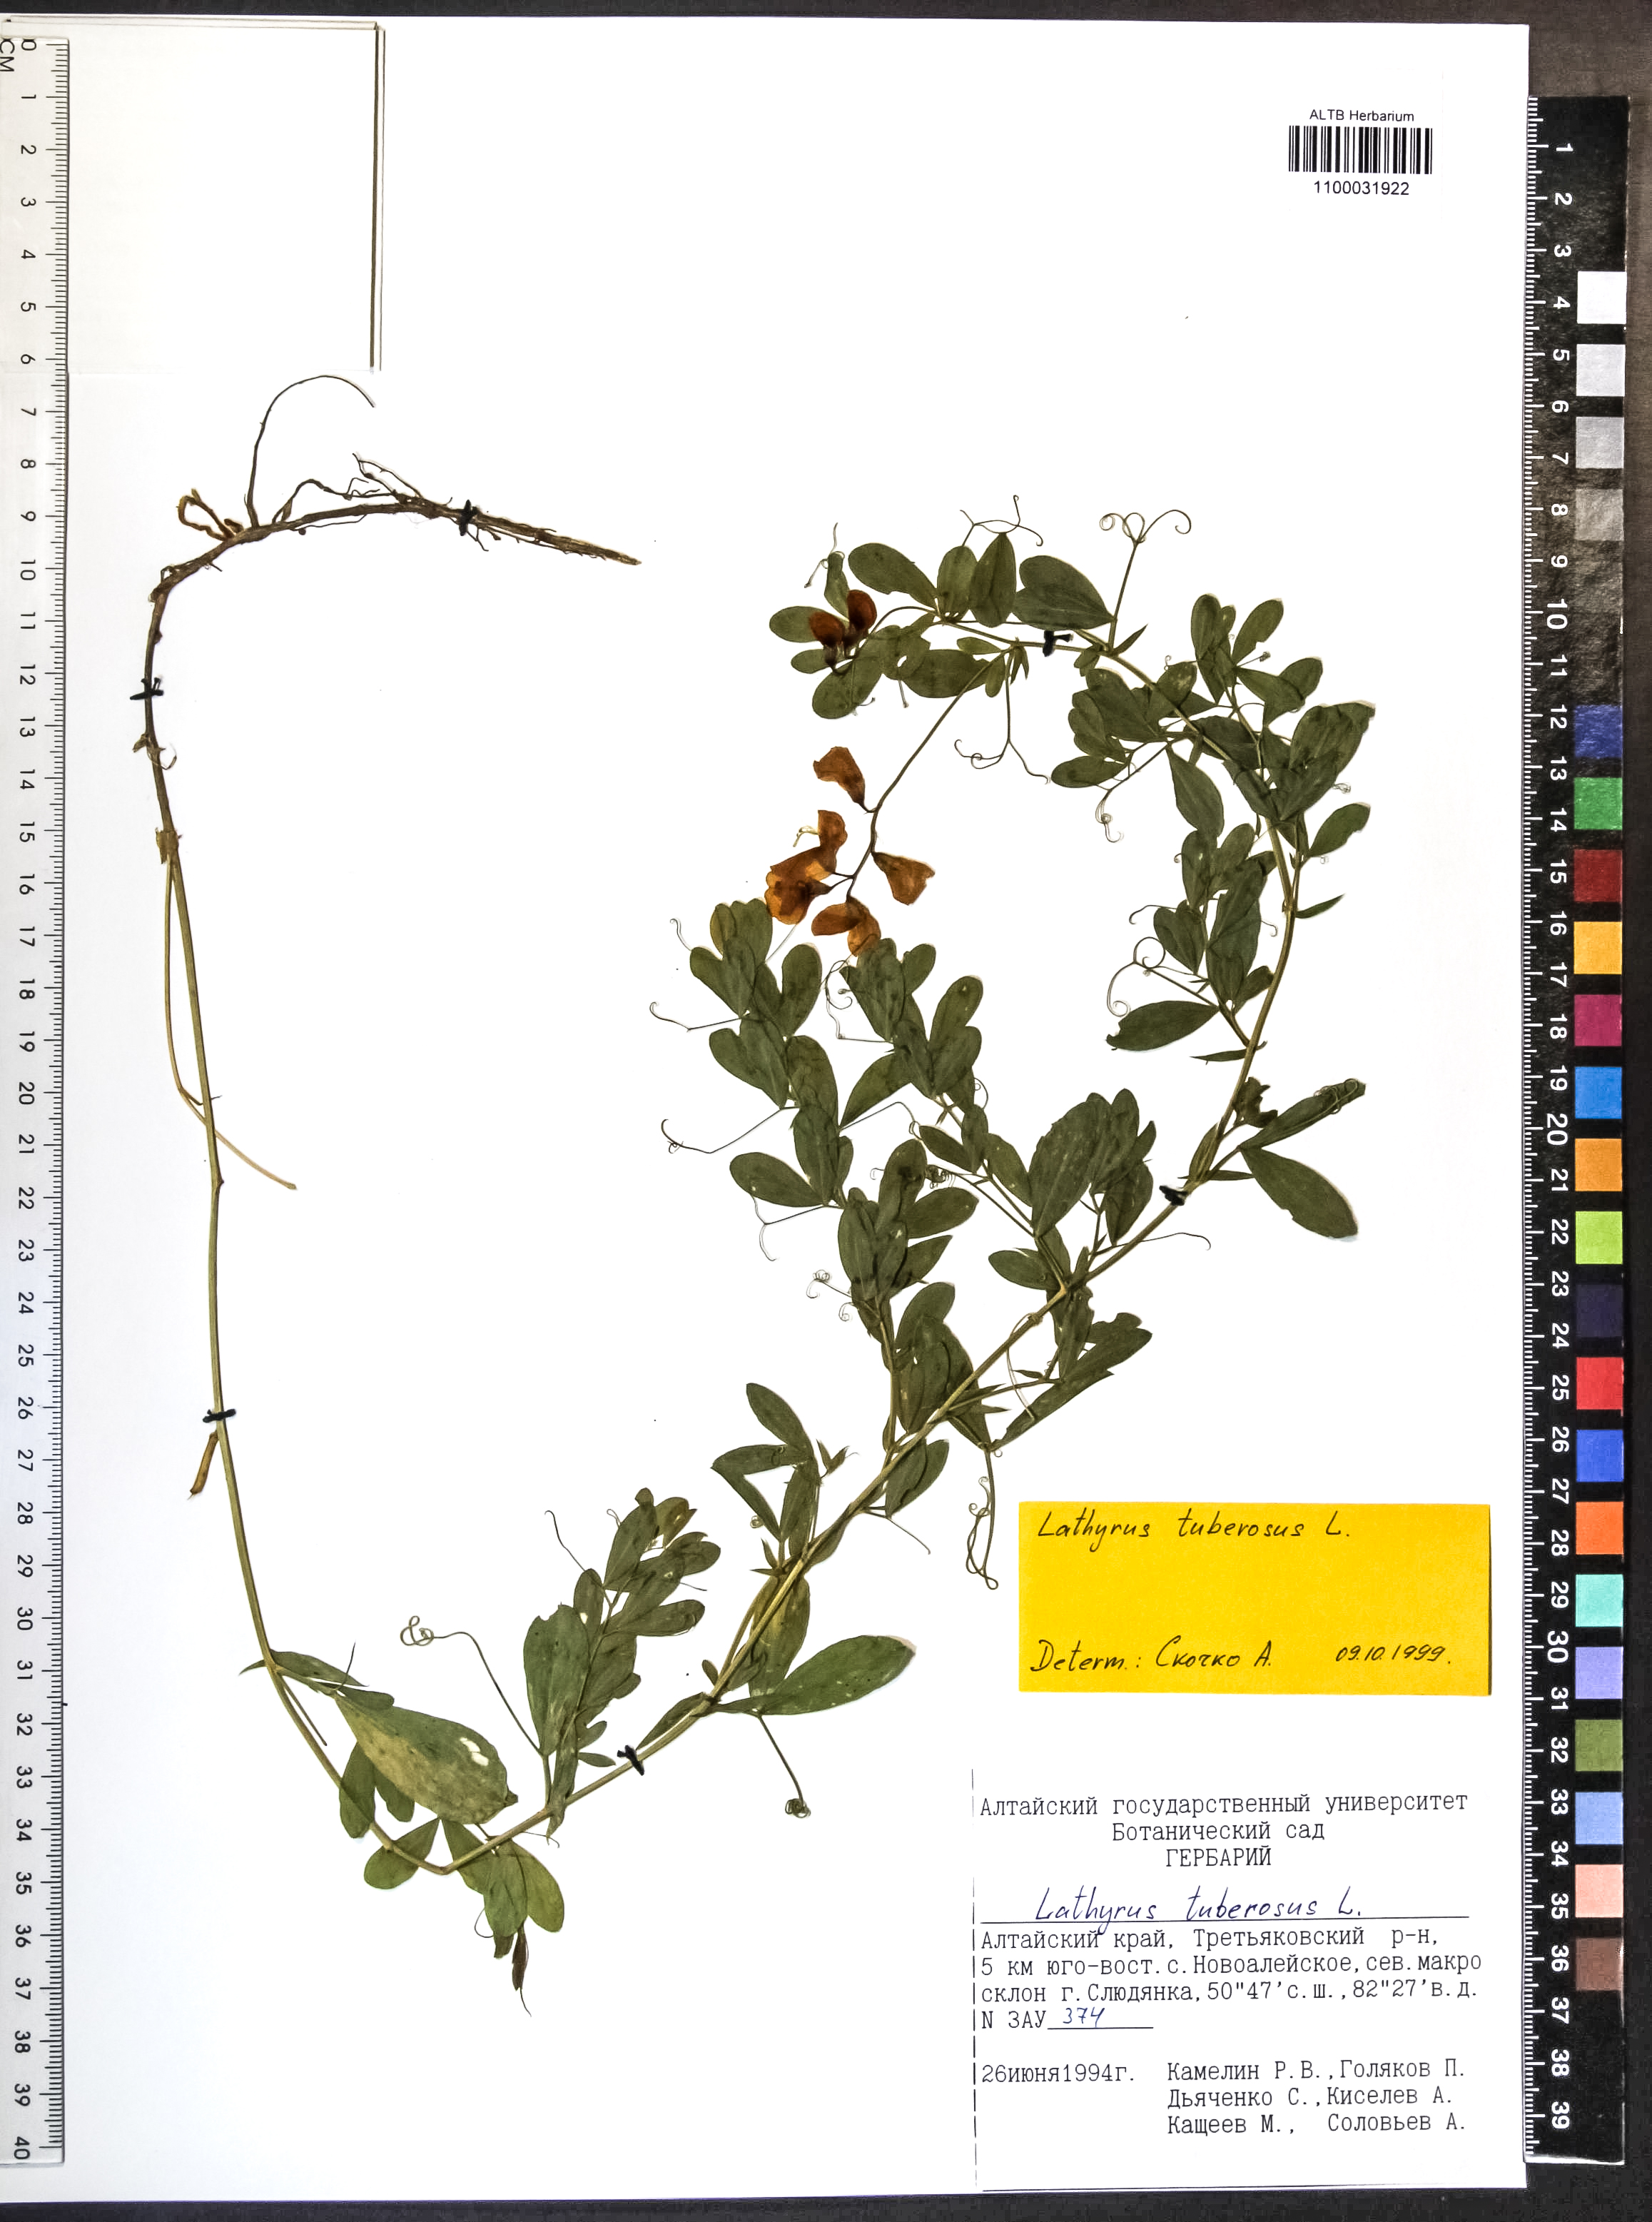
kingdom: Plantae
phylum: Tracheophyta
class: Magnoliopsida
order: Fabales
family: Fabaceae
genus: Lathyrus
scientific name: Lathyrus tuberosus
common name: Tuberous pea
